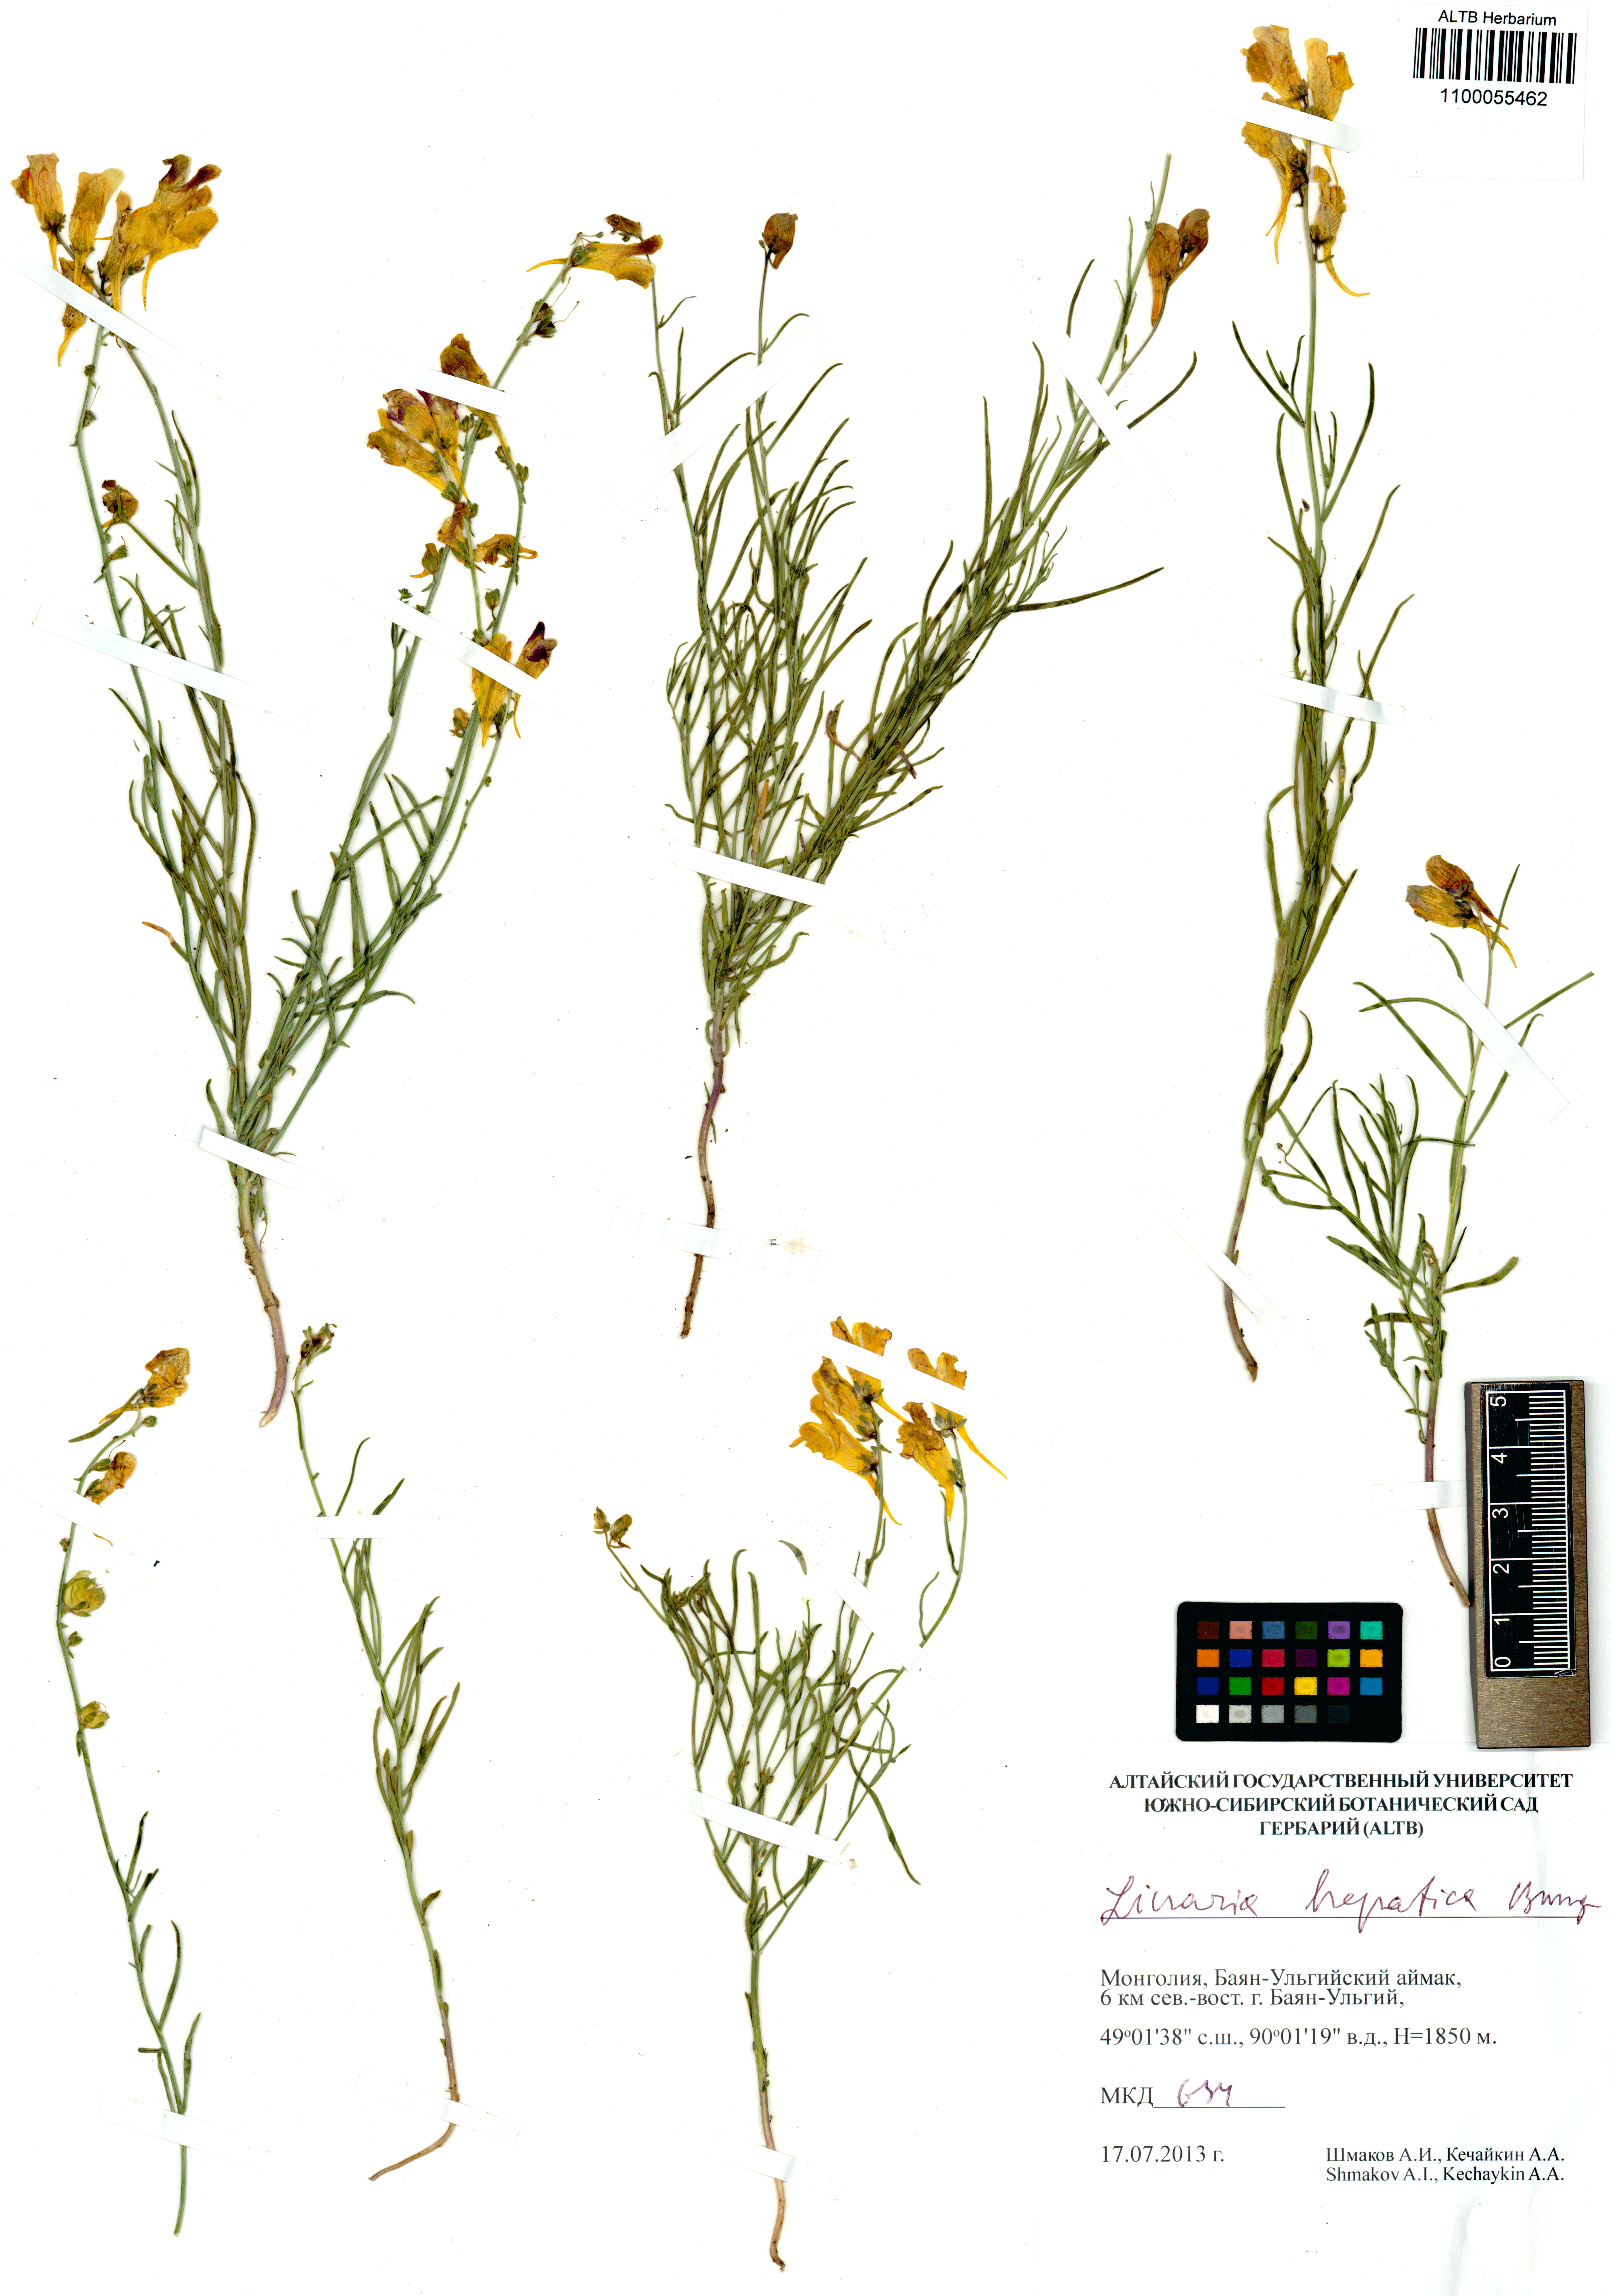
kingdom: Plantae
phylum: Tracheophyta
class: Magnoliopsida
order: Lamiales
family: Plantaginaceae
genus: Linaria
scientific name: Linaria hepatica
